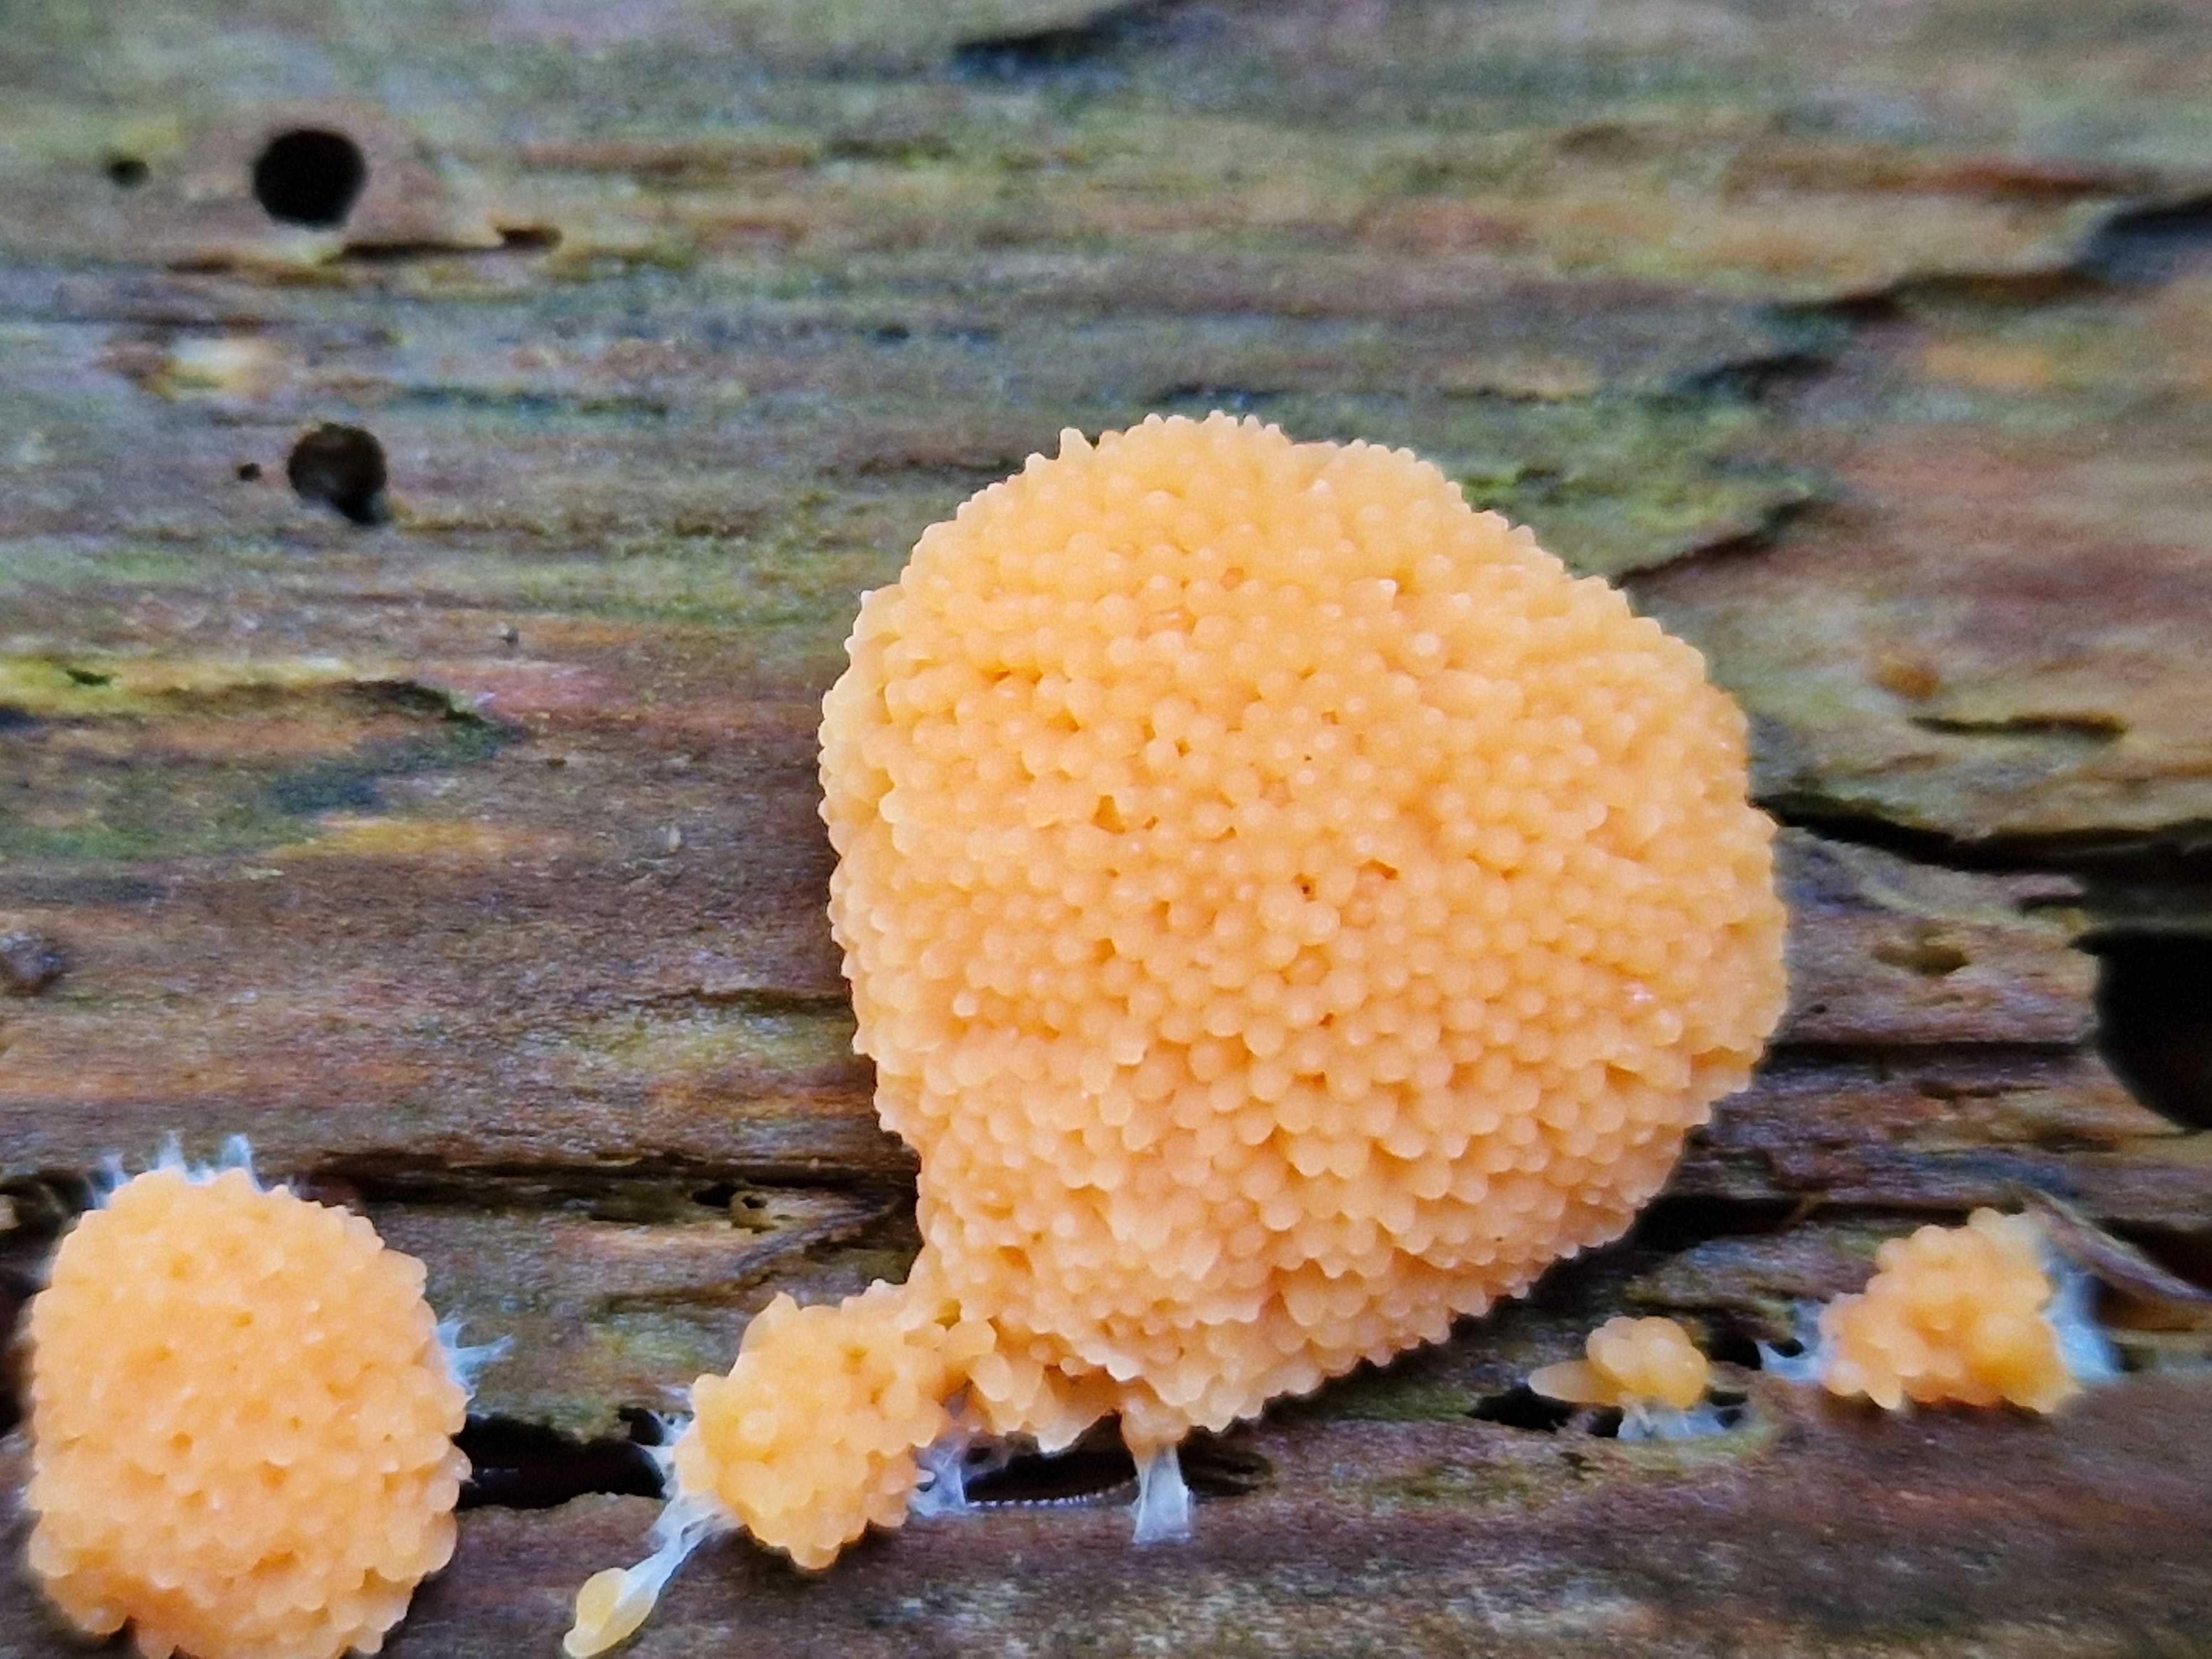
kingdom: Protozoa
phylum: Mycetozoa
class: Myxomycetes
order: Cribrariales
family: Tubiferaceae
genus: Tubifera
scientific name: Tubifera ferruginosa
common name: kanel-støvrør
